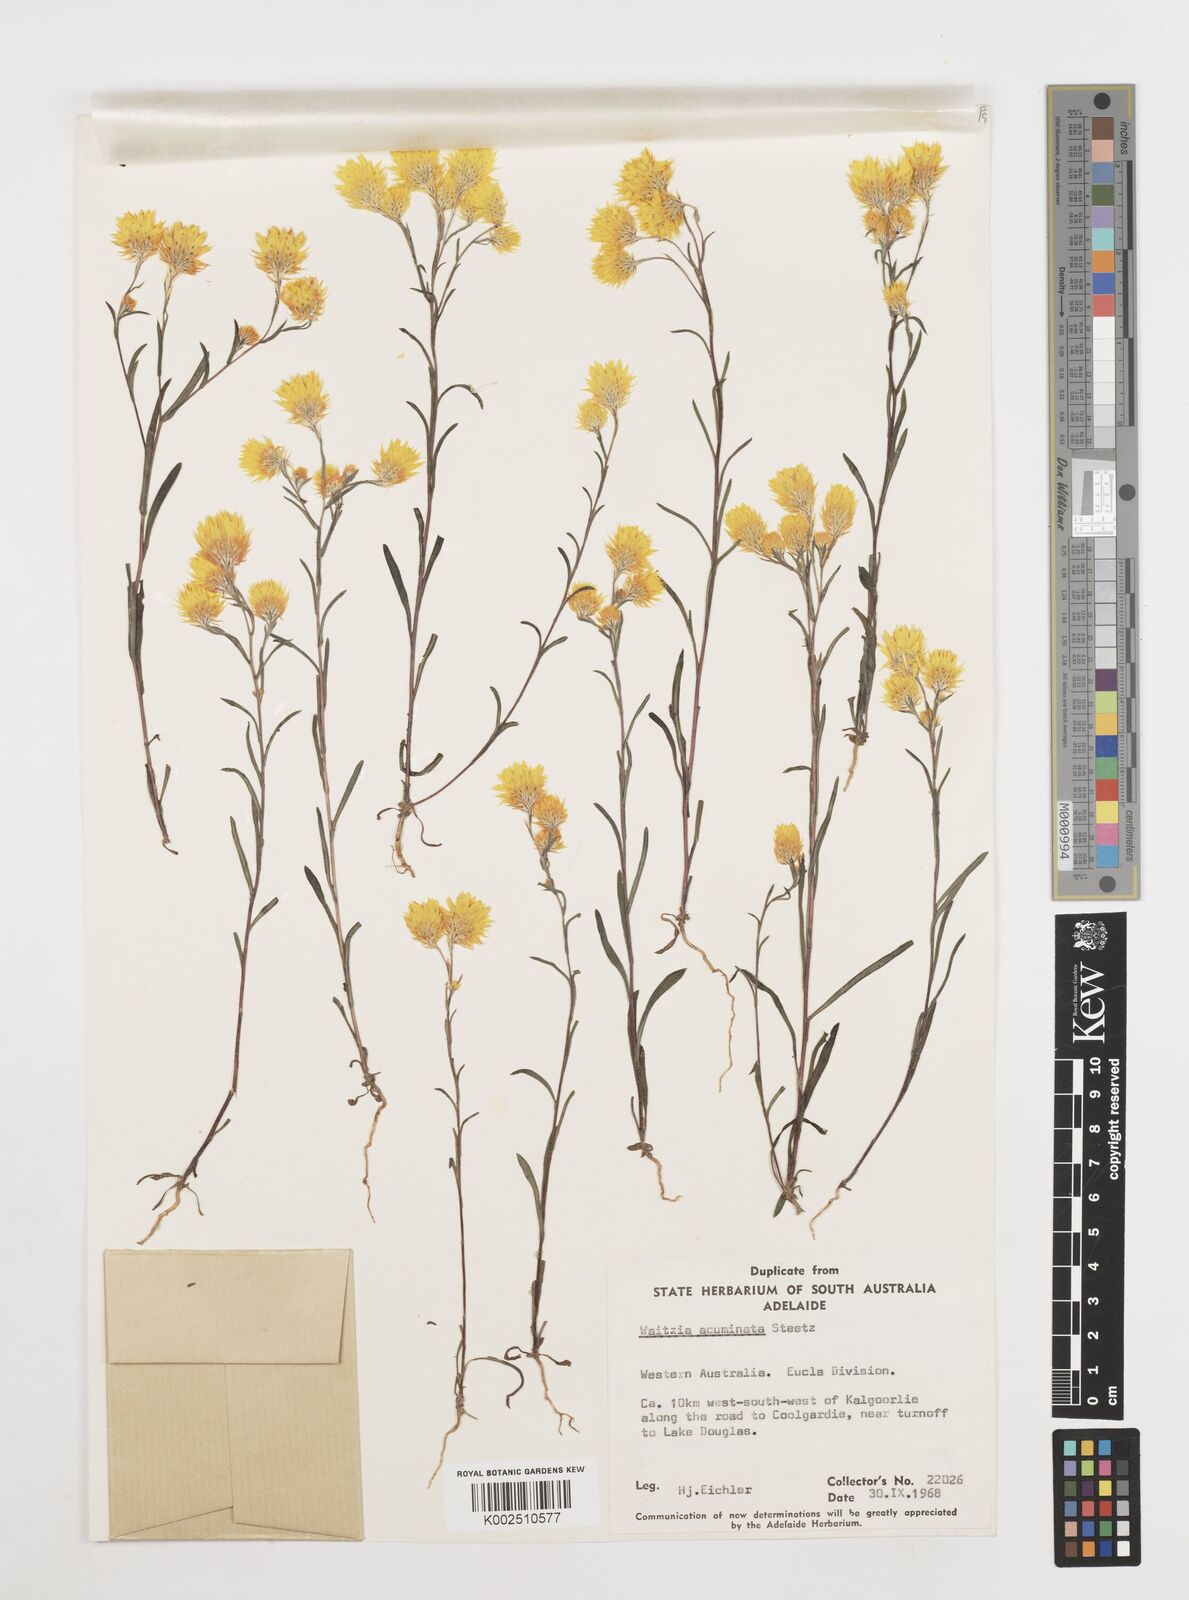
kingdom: Plantae
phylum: Tracheophyta
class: Magnoliopsida
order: Asterales
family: Asteraceae
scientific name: Asteraceae
